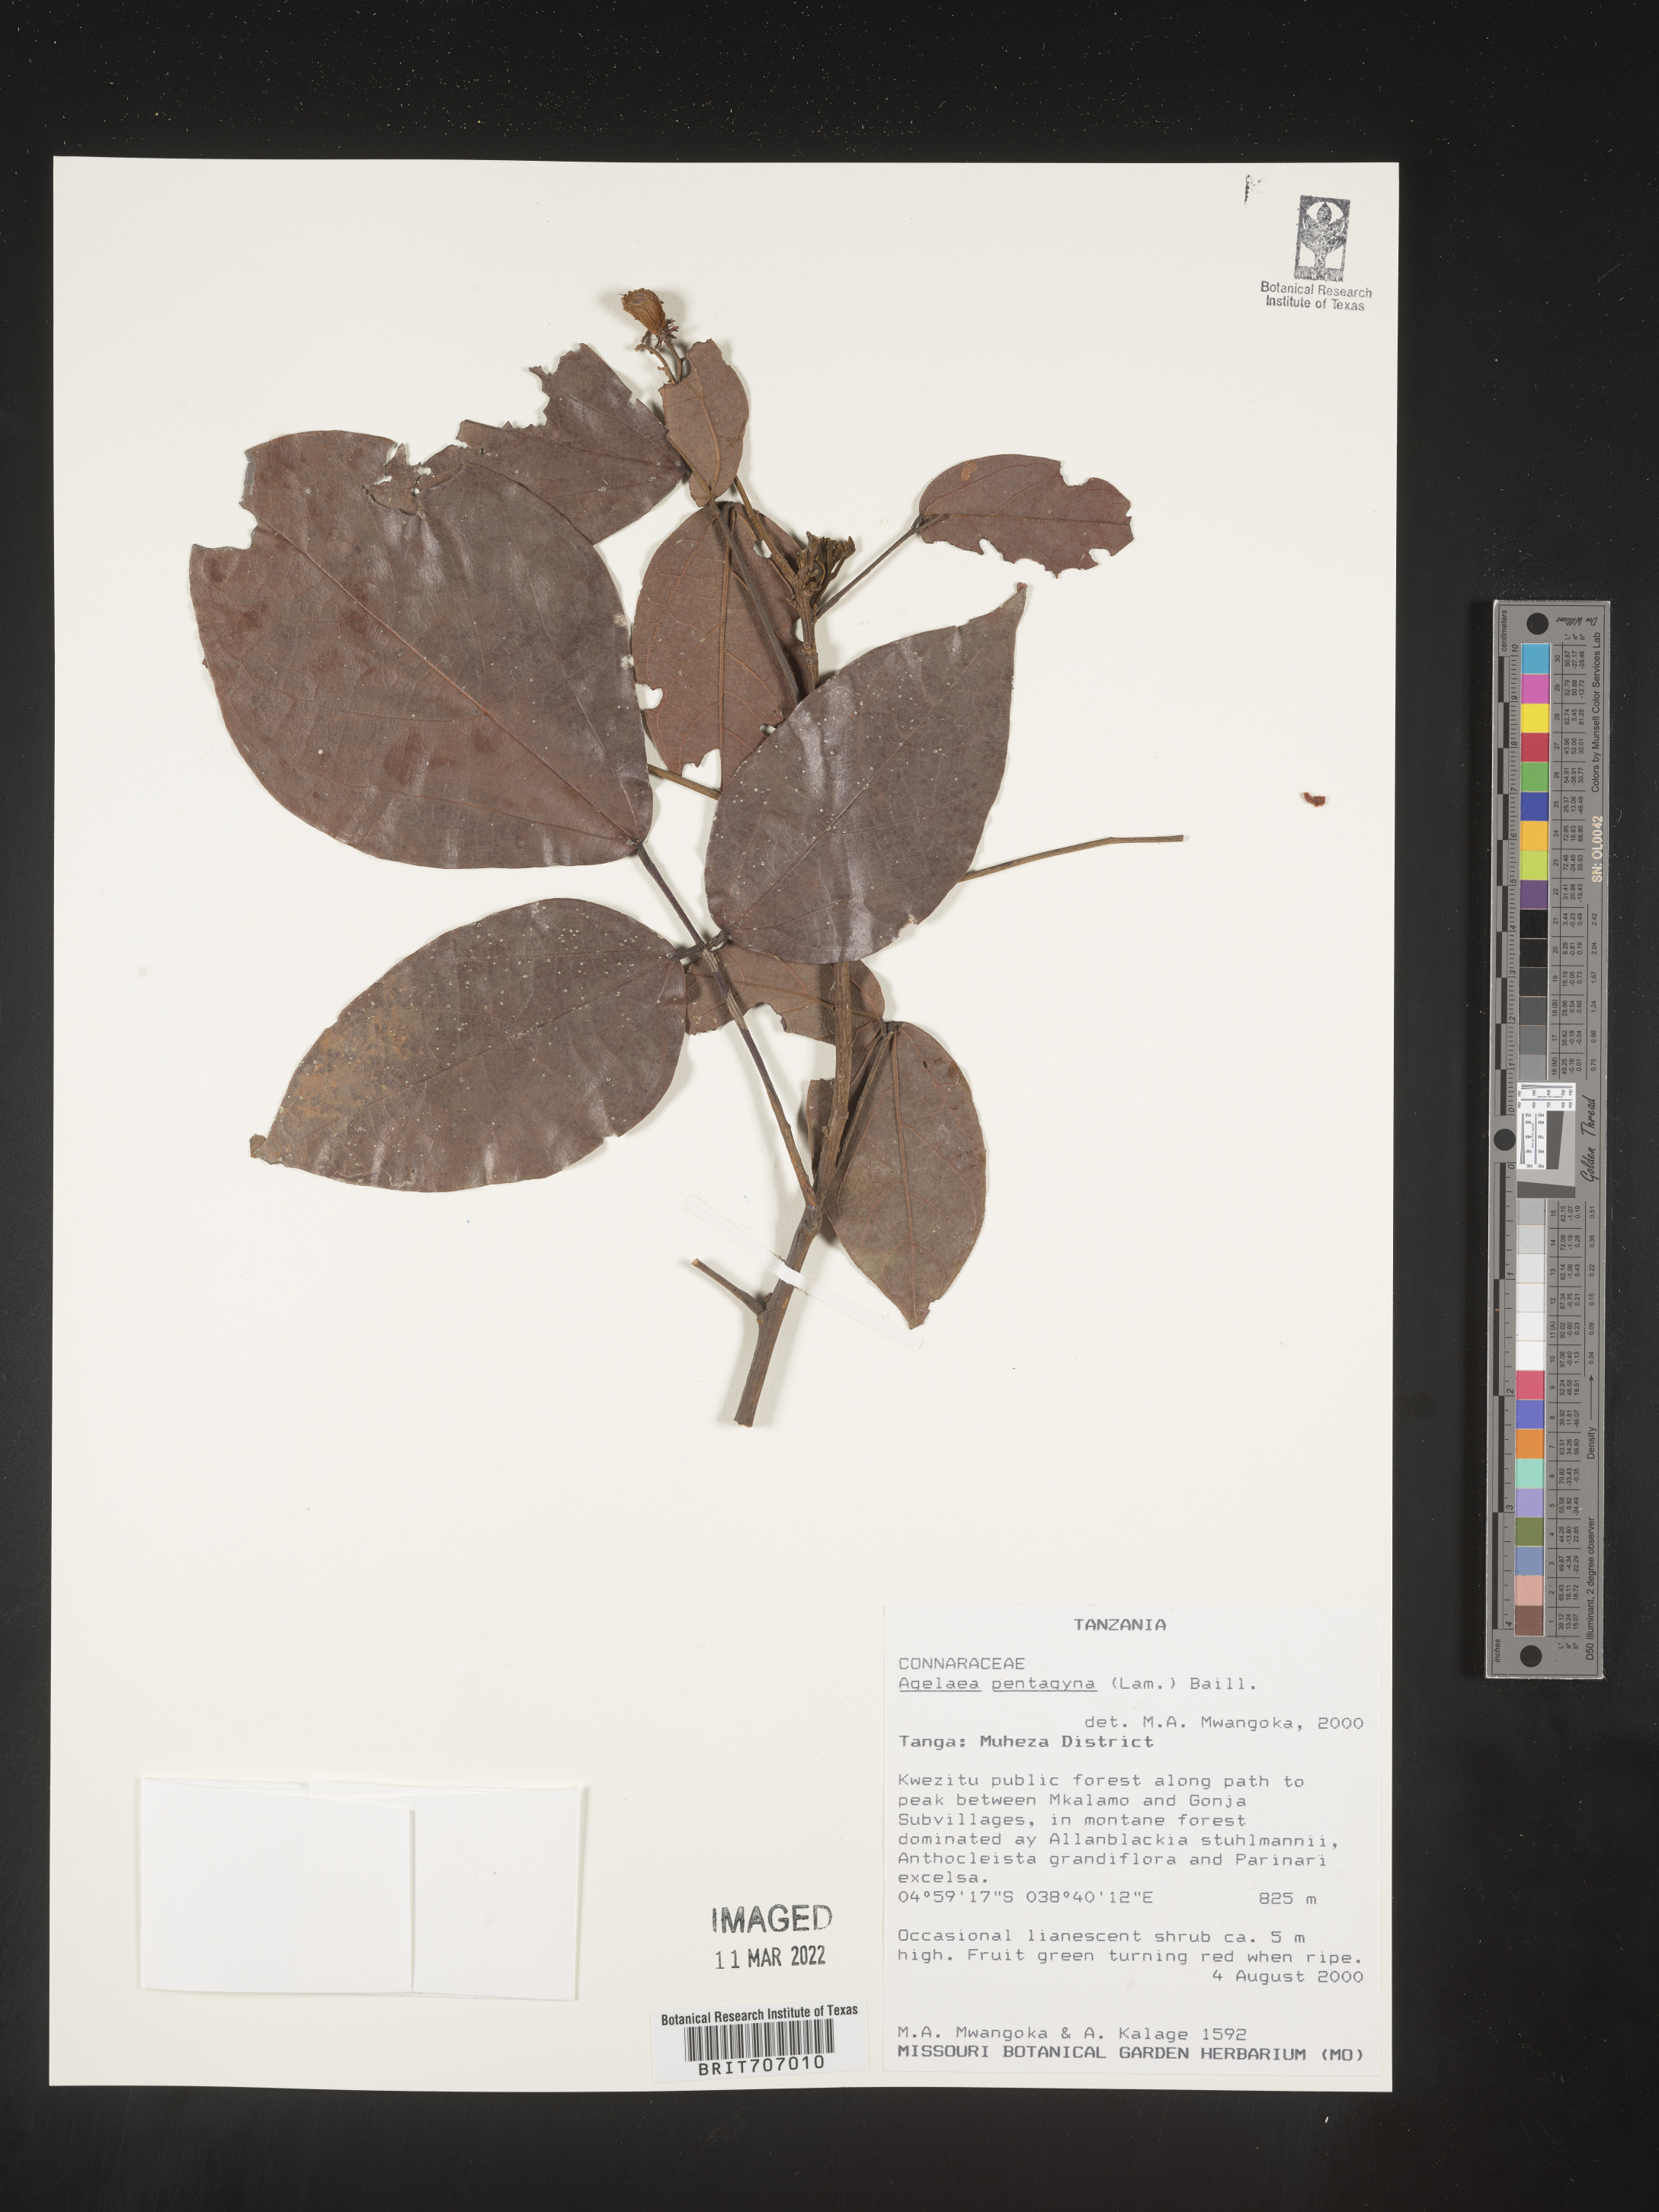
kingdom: Plantae
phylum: Tracheophyta
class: Magnoliopsida
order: Oxalidales
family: Connaraceae
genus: Agelaea
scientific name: Agelaea
